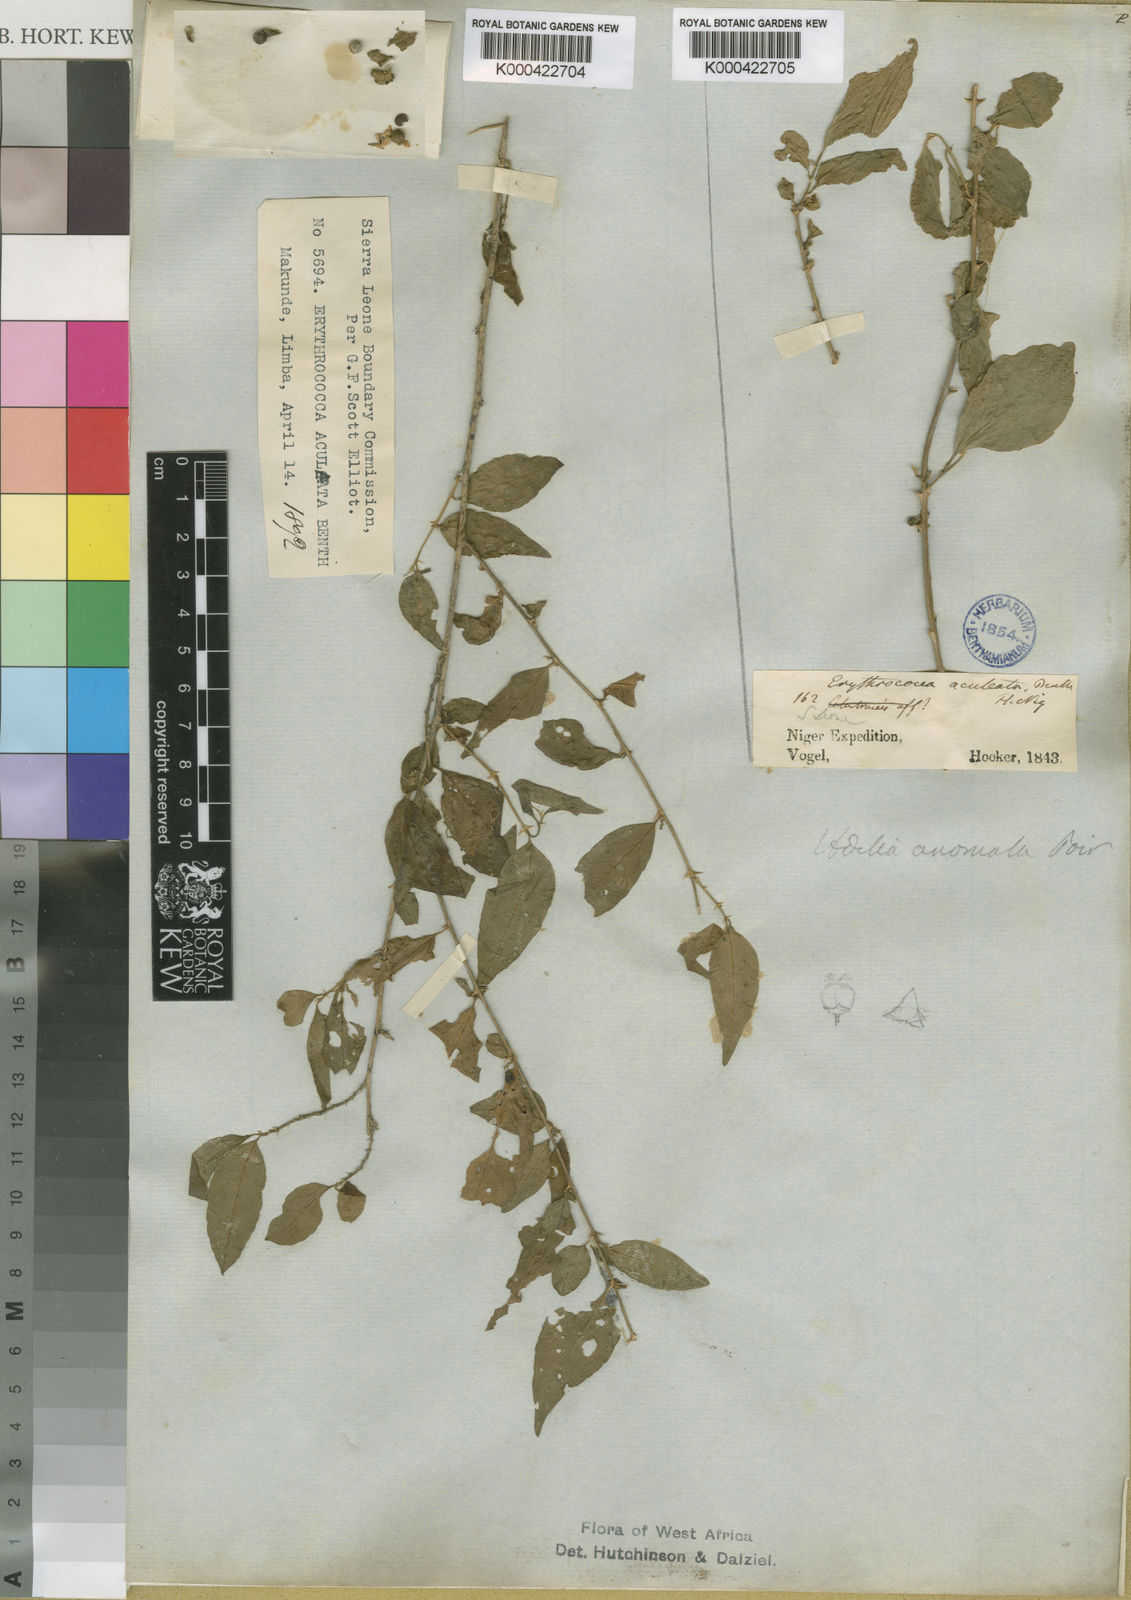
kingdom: Plantae
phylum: Tracheophyta
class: Magnoliopsida
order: Malpighiales
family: Euphorbiaceae
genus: Erythrococca
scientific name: Erythrococca anomala
